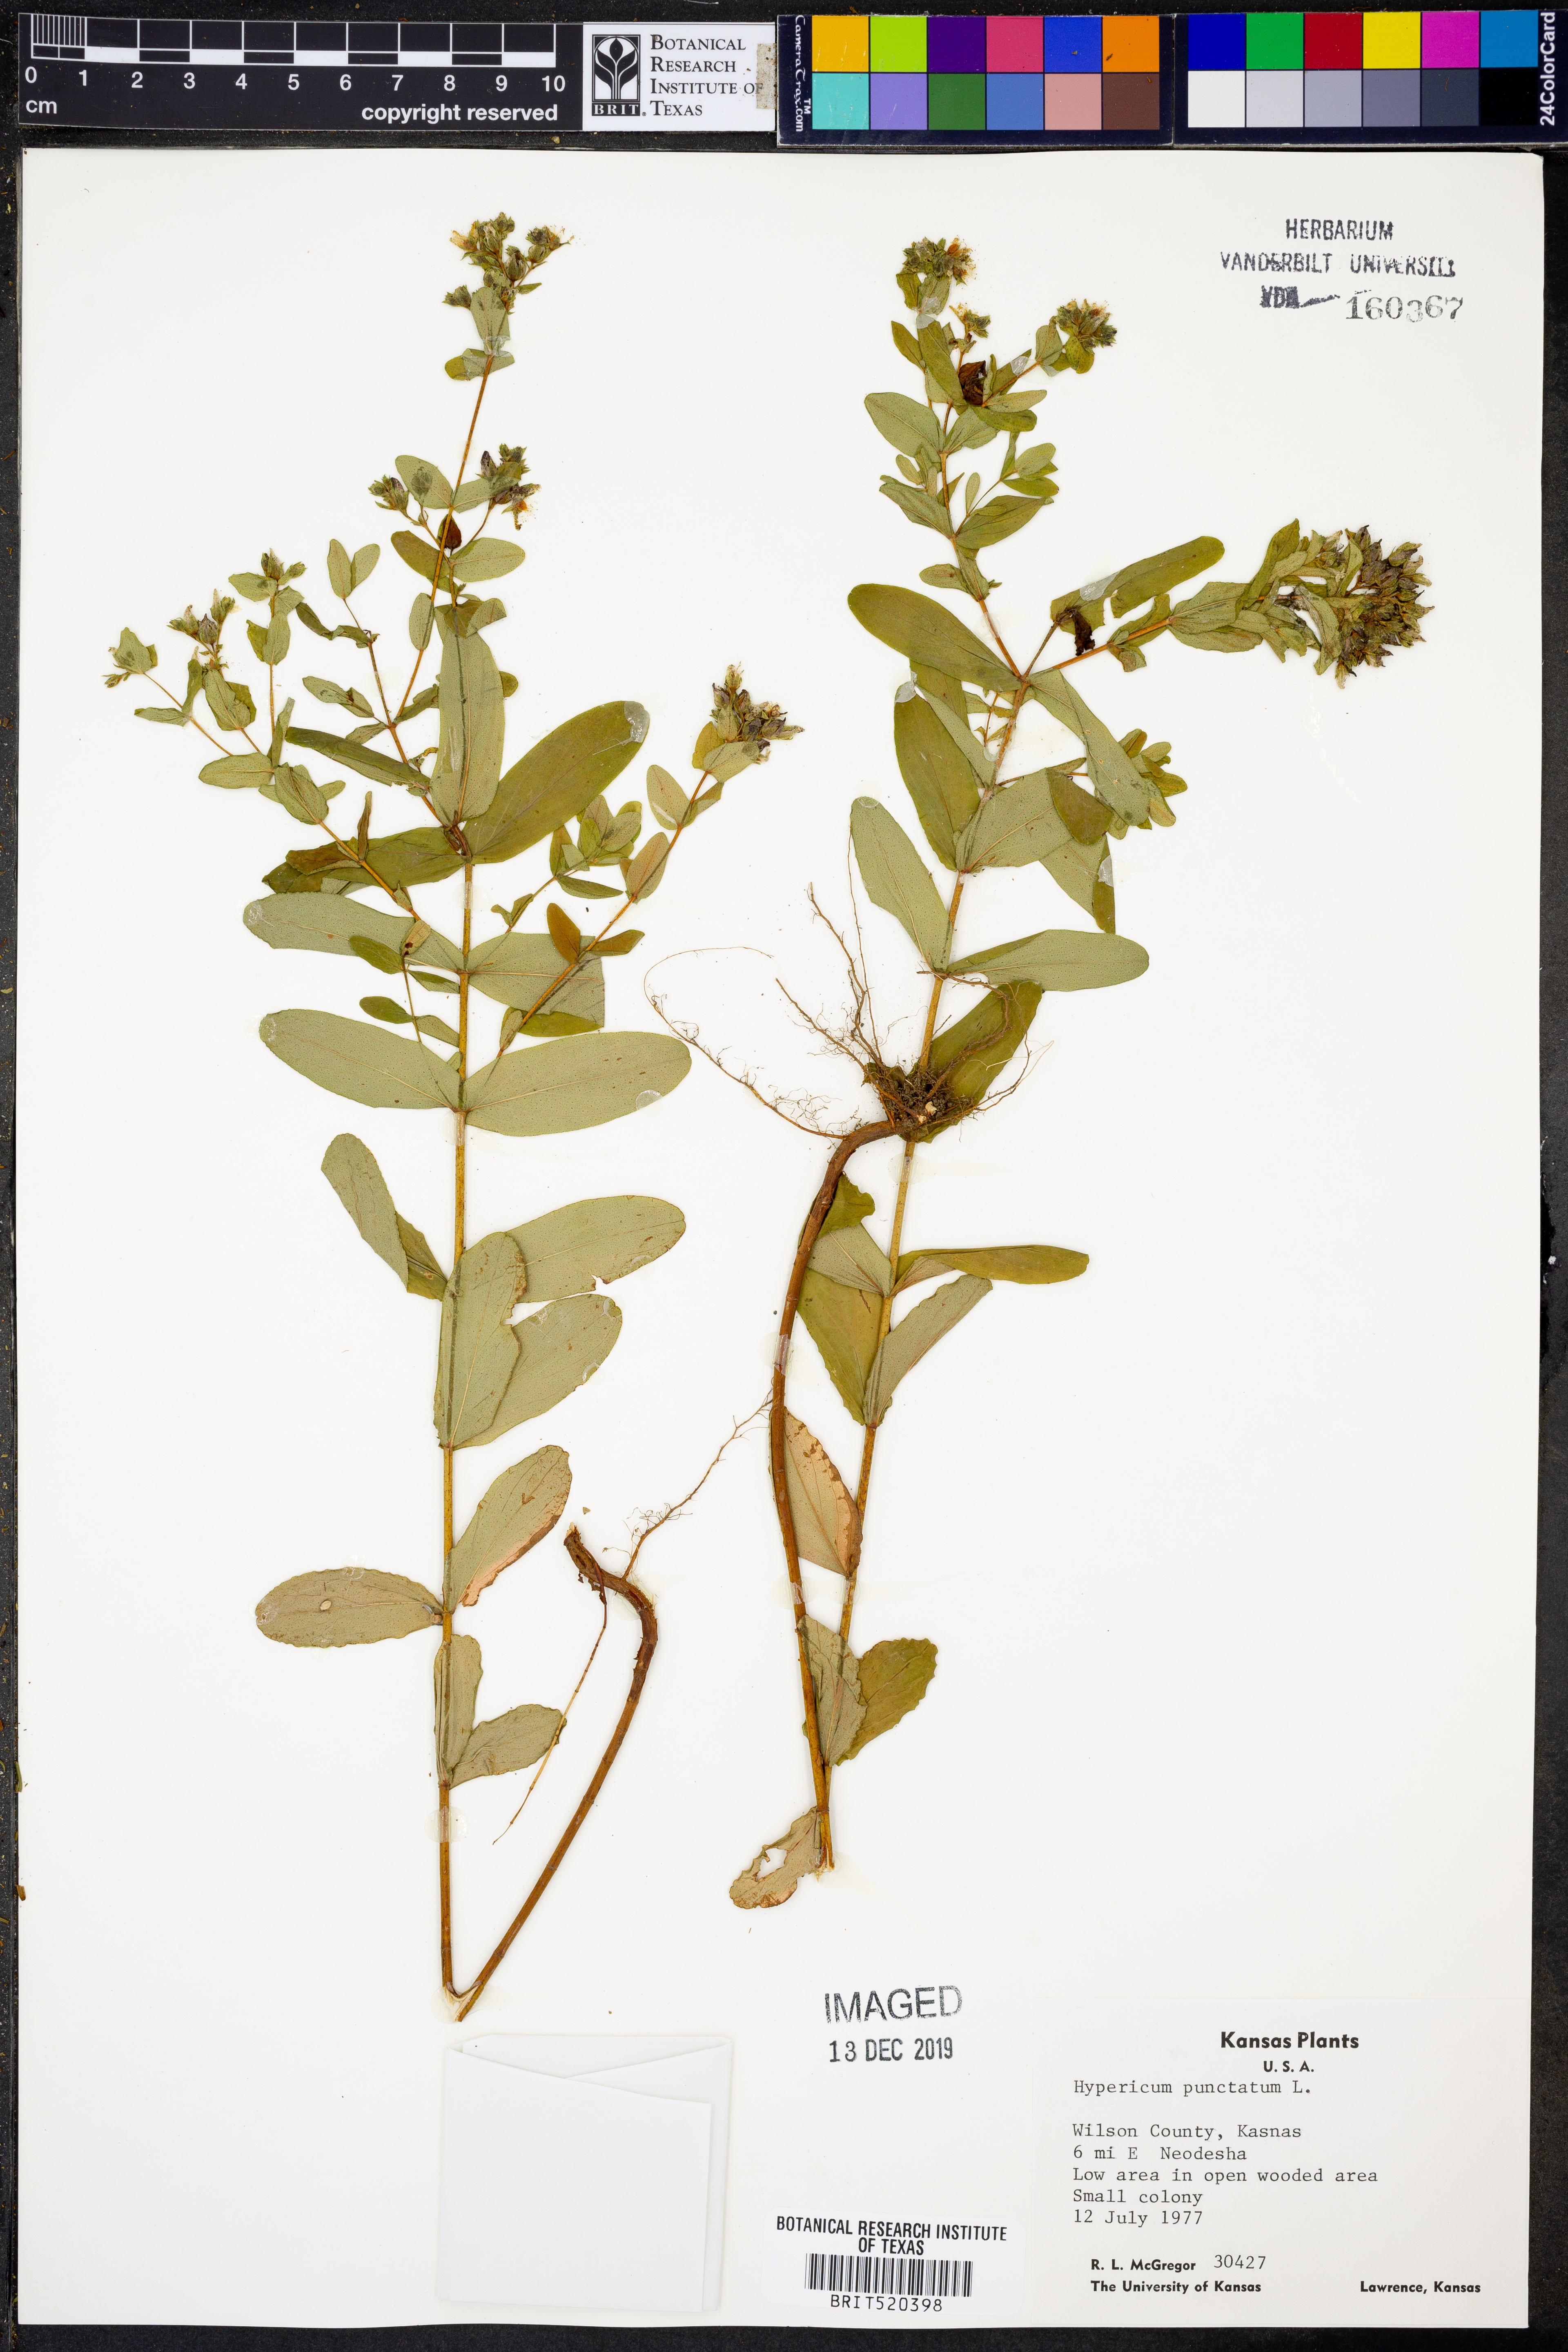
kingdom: Plantae
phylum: Tracheophyta
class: Magnoliopsida
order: Malpighiales
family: Hypericaceae
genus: Hypericum
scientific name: Hypericum punctatum
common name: Spotted st. john's-wort
